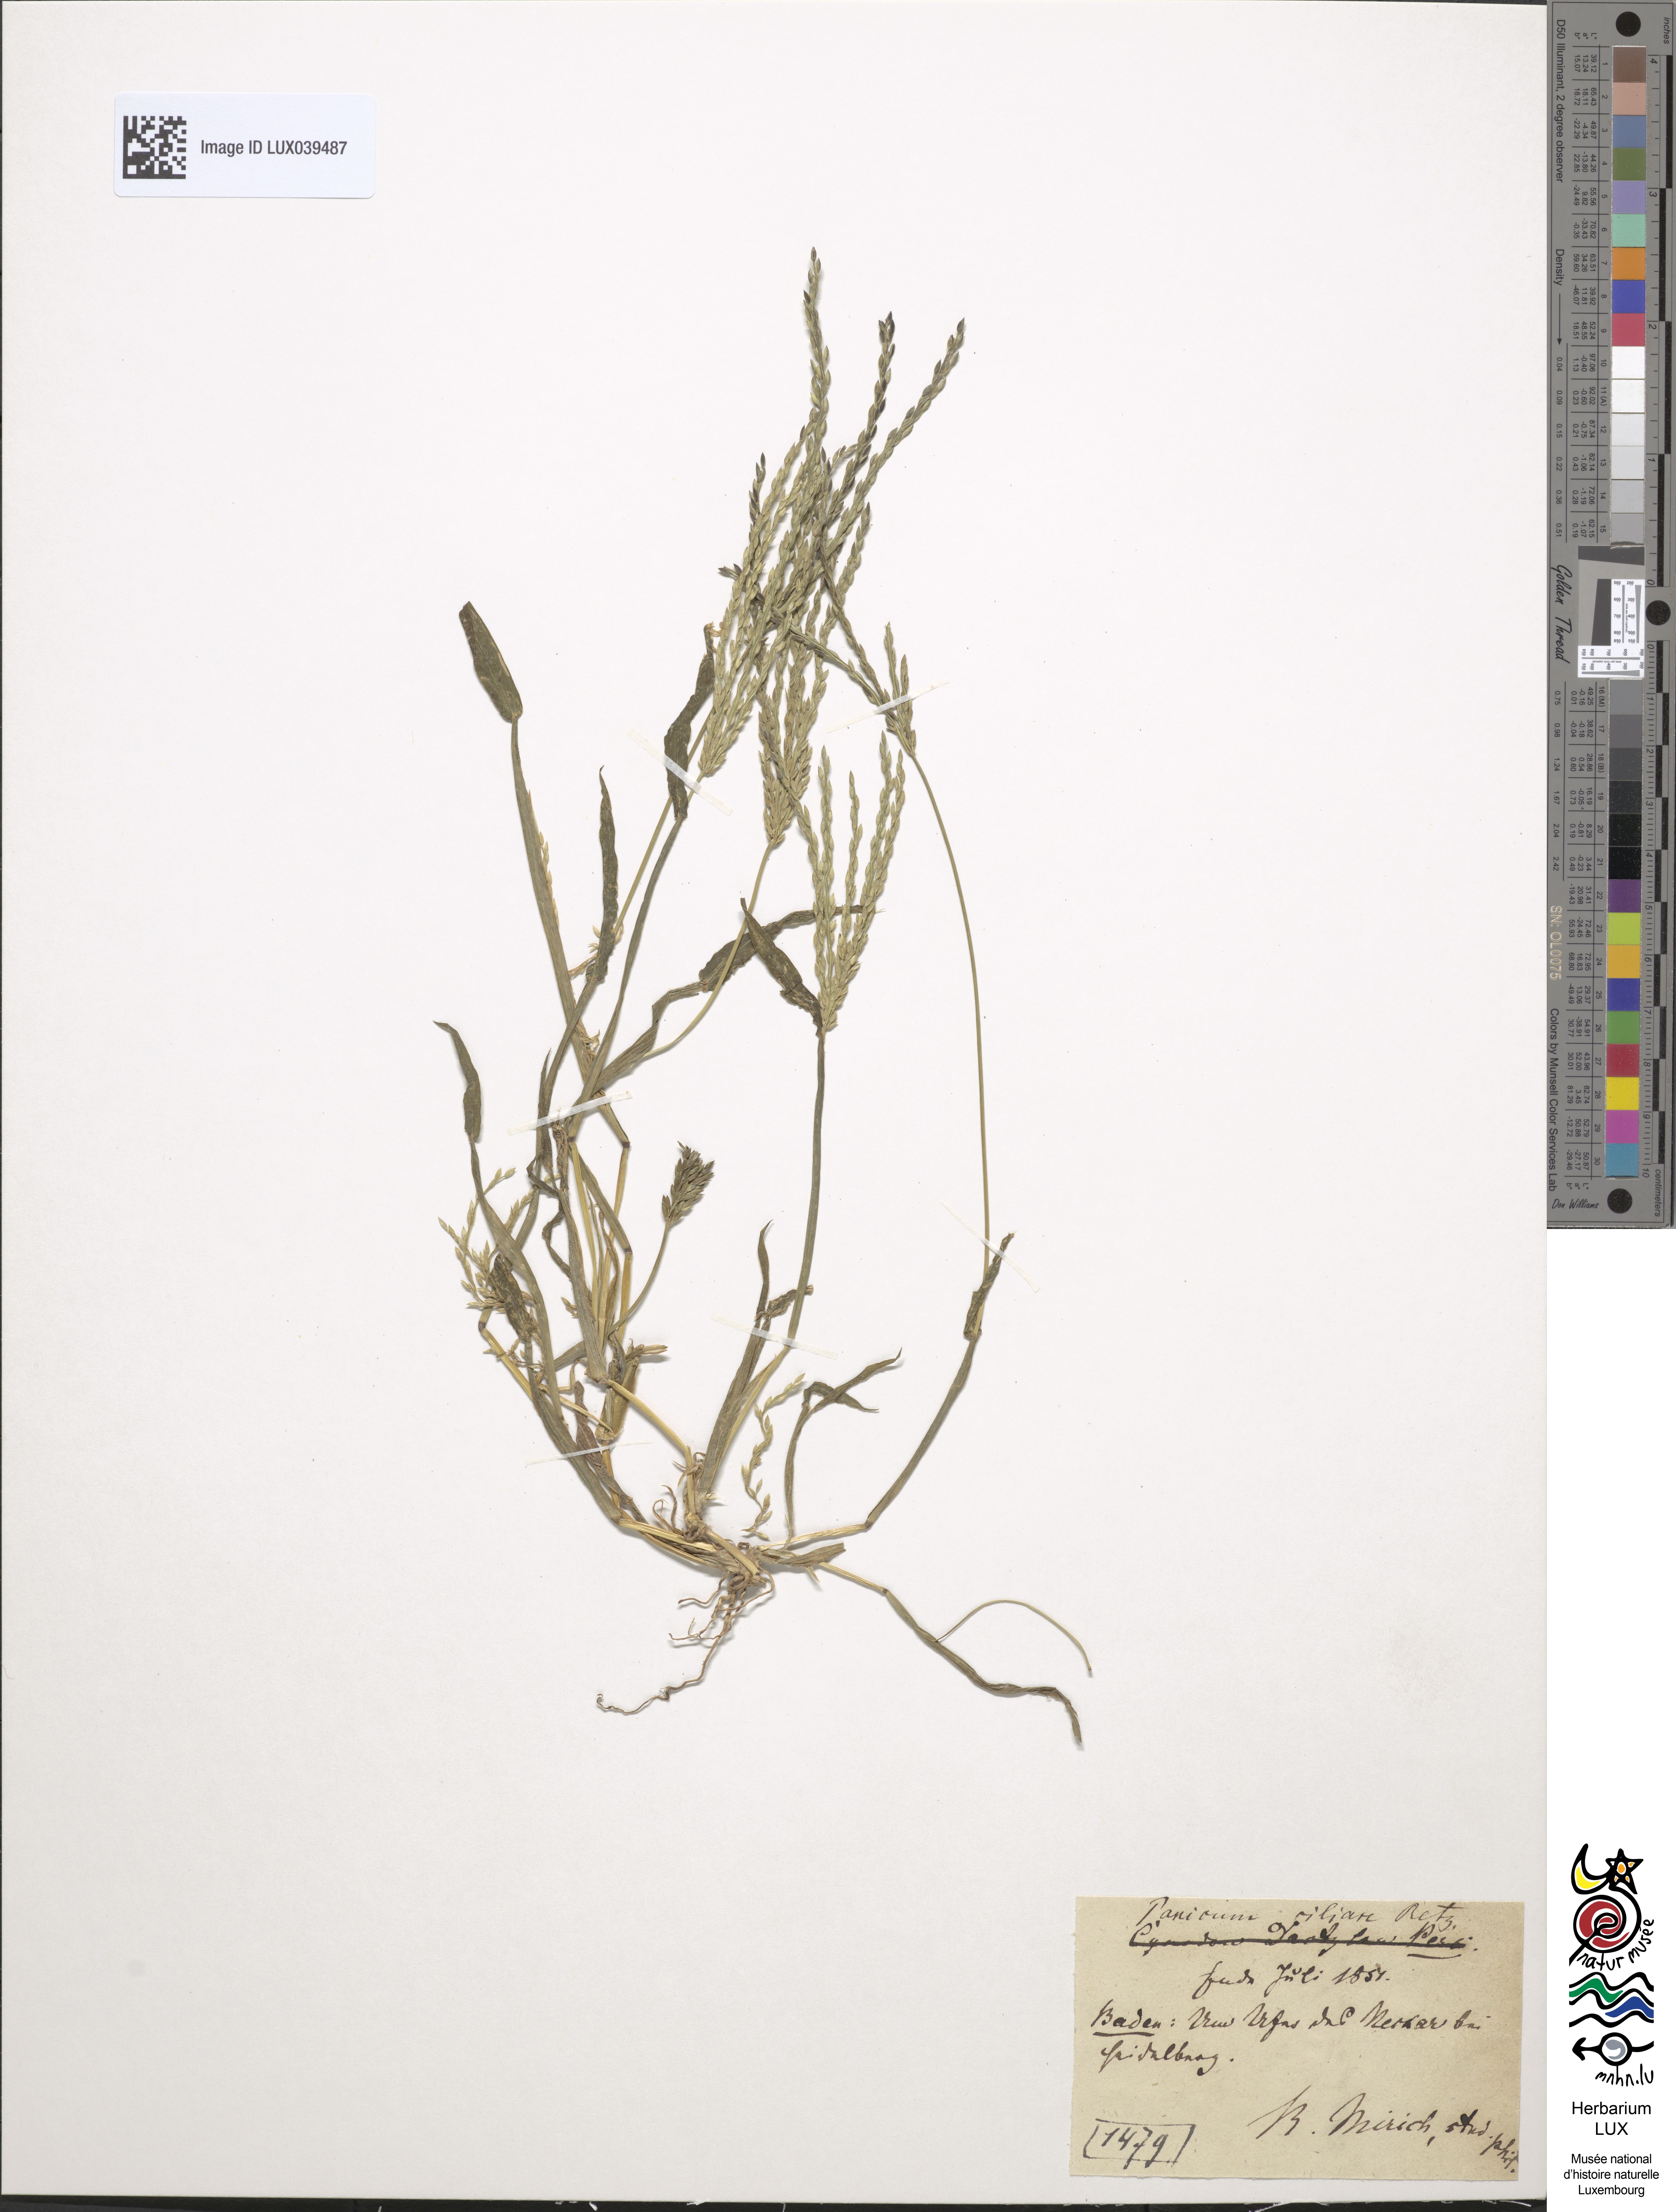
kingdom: Plantae
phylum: Tracheophyta
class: Liliopsida
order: Poales
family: Poaceae
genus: Digitaria
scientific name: Digitaria ciliaris
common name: Tropical finger-grass
